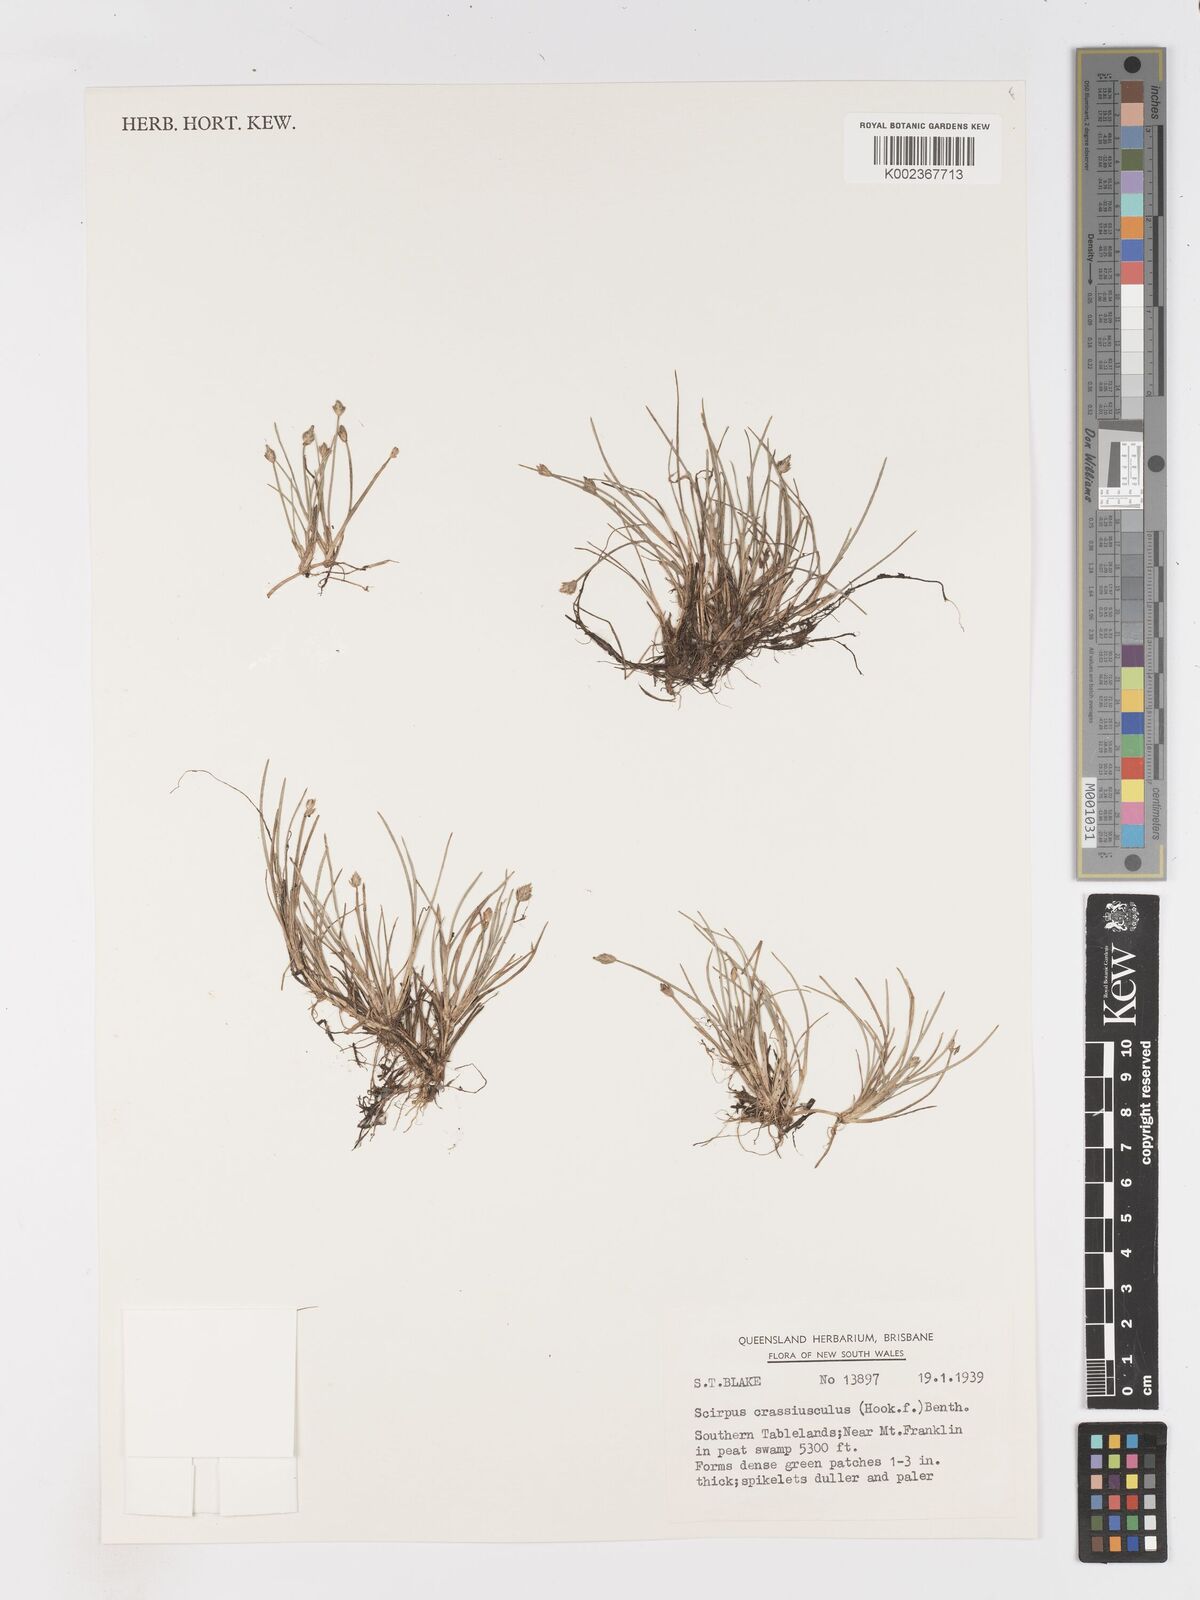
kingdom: Plantae
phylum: Tracheophyta
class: Liliopsida
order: Poales
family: Cyperaceae
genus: Isolepis
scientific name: Isolepis crassiuscula
